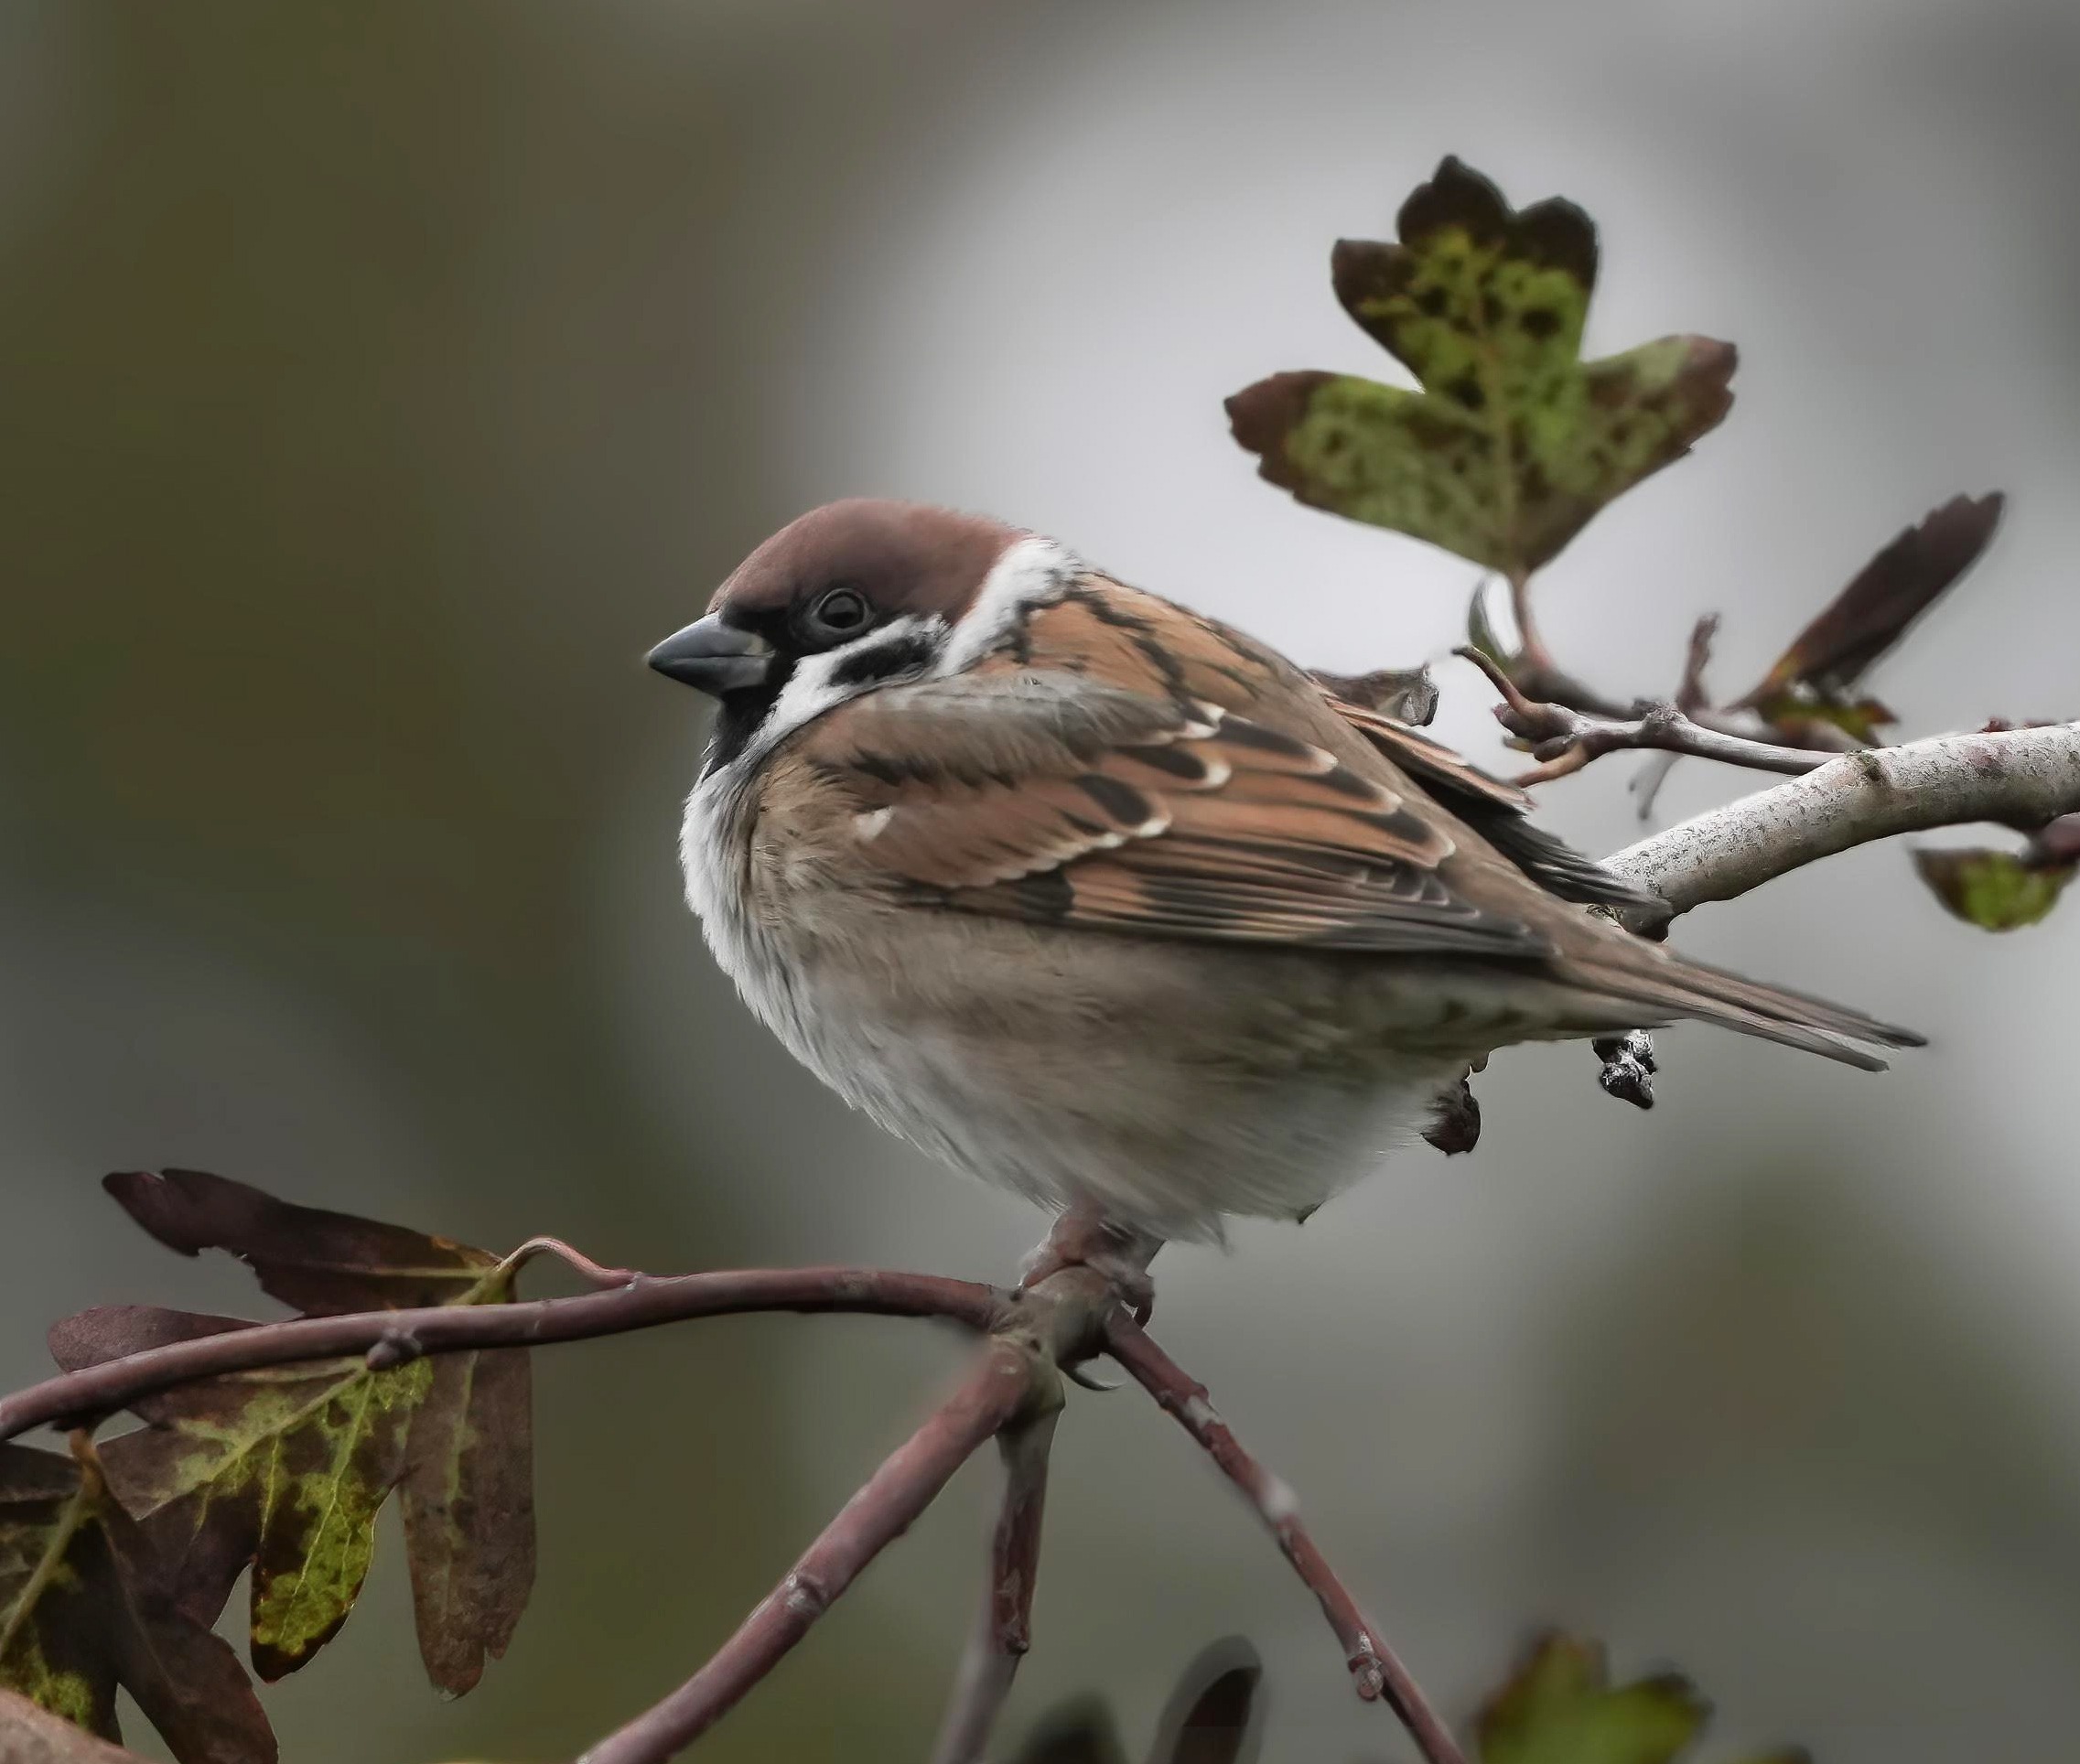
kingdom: Animalia
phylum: Chordata
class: Aves
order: Passeriformes
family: Passeridae
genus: Passer
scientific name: Passer montanus
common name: Skovspurv
